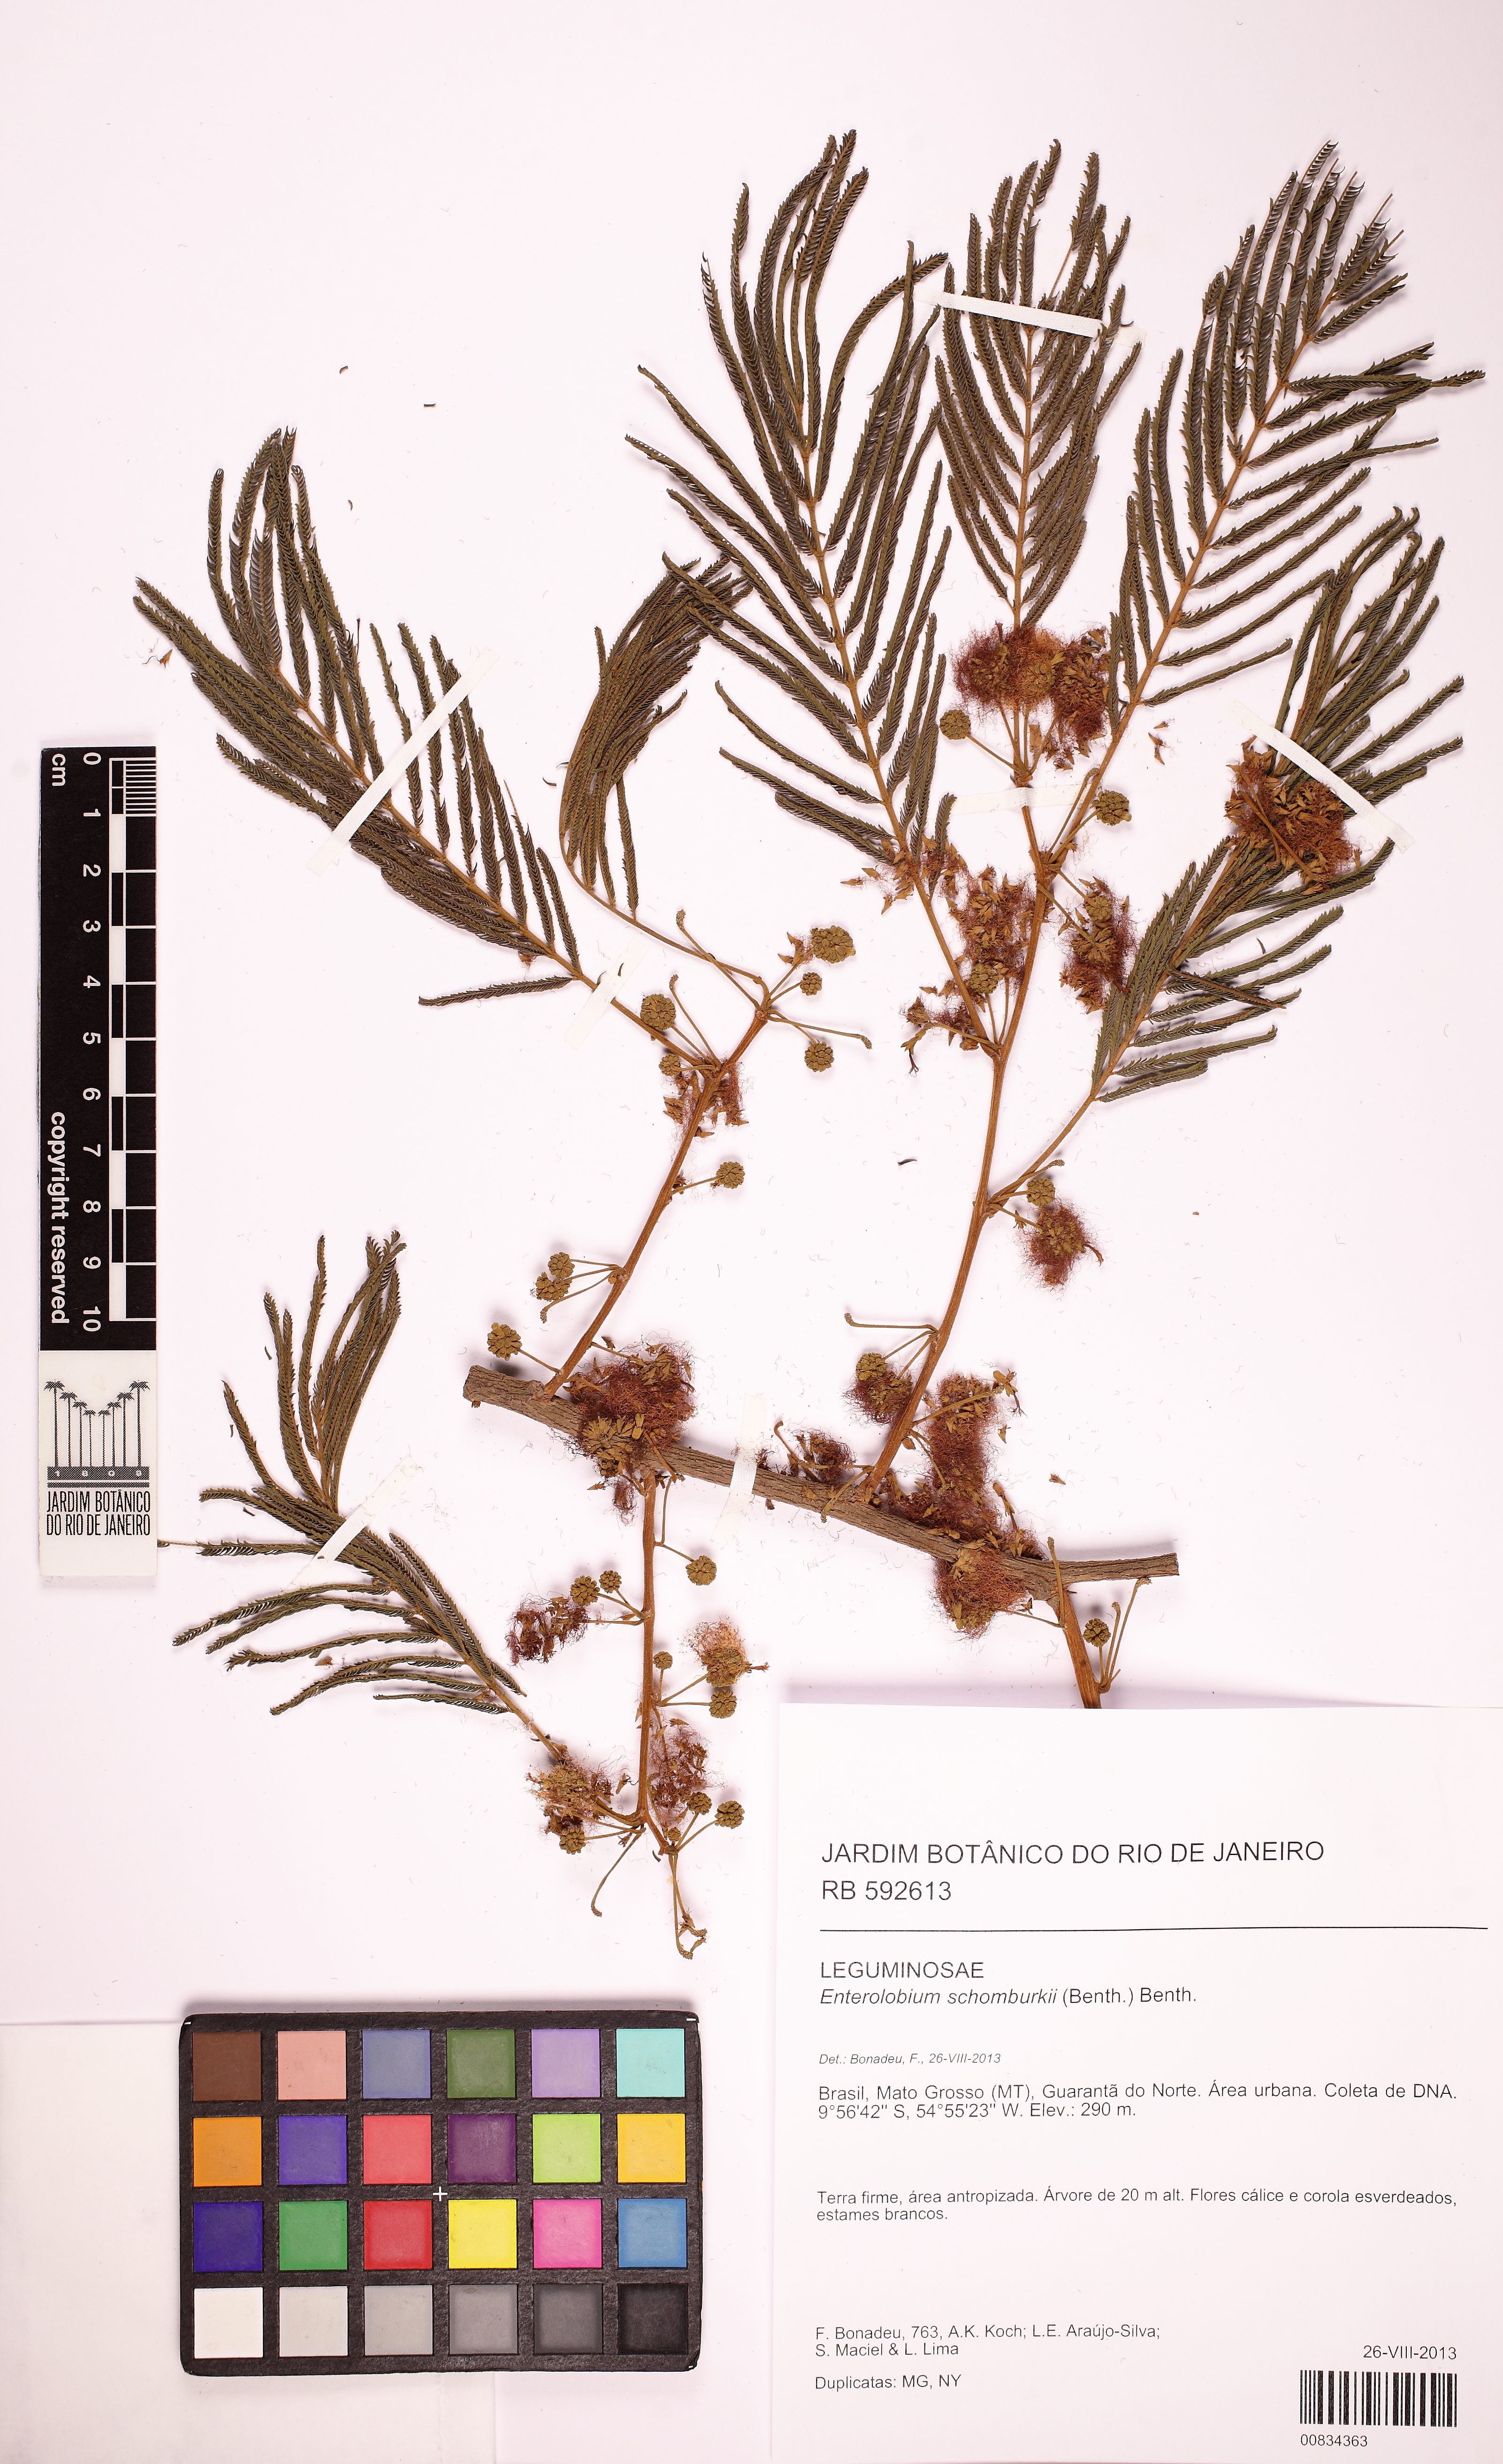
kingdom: Plantae
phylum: Tracheophyta
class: Magnoliopsida
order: Fabales
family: Fabaceae
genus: Enterolobium
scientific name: Enterolobium schomburgkii
